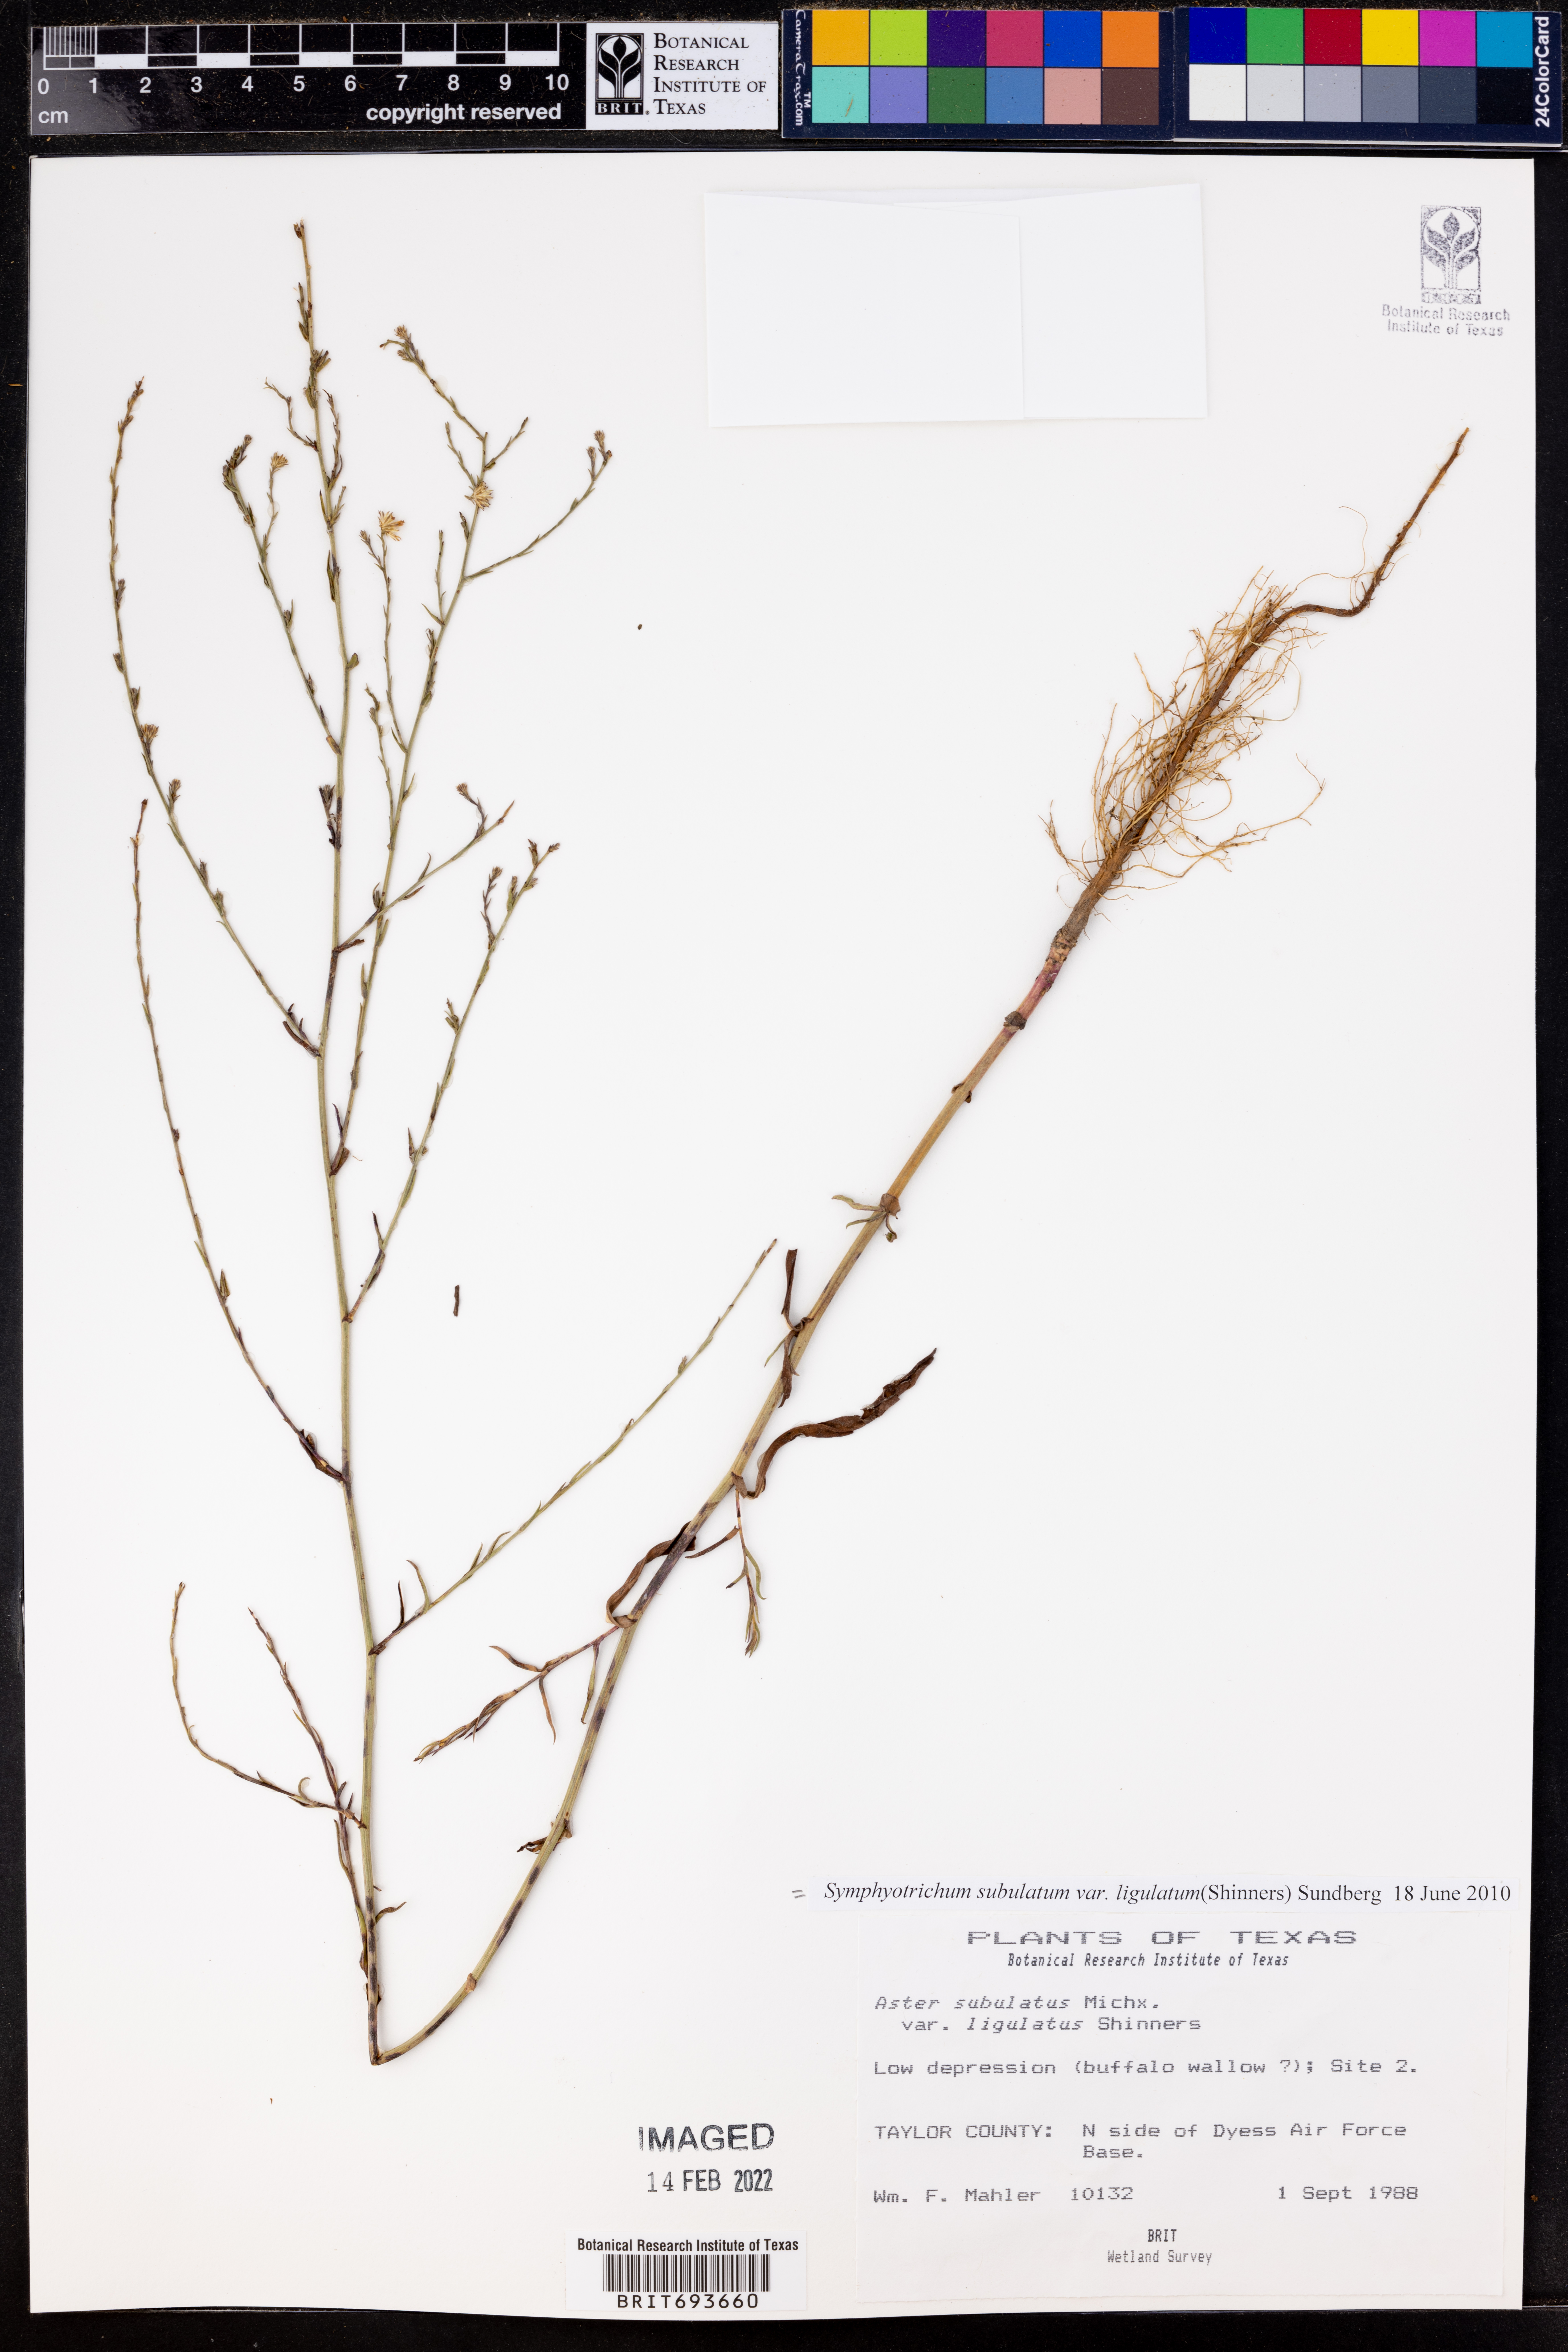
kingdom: Plantae
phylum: Tracheophyta
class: Magnoliopsida
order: Asterales
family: Asteraceae
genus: Symphyotrichum
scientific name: Symphyotrichum divaricatum
